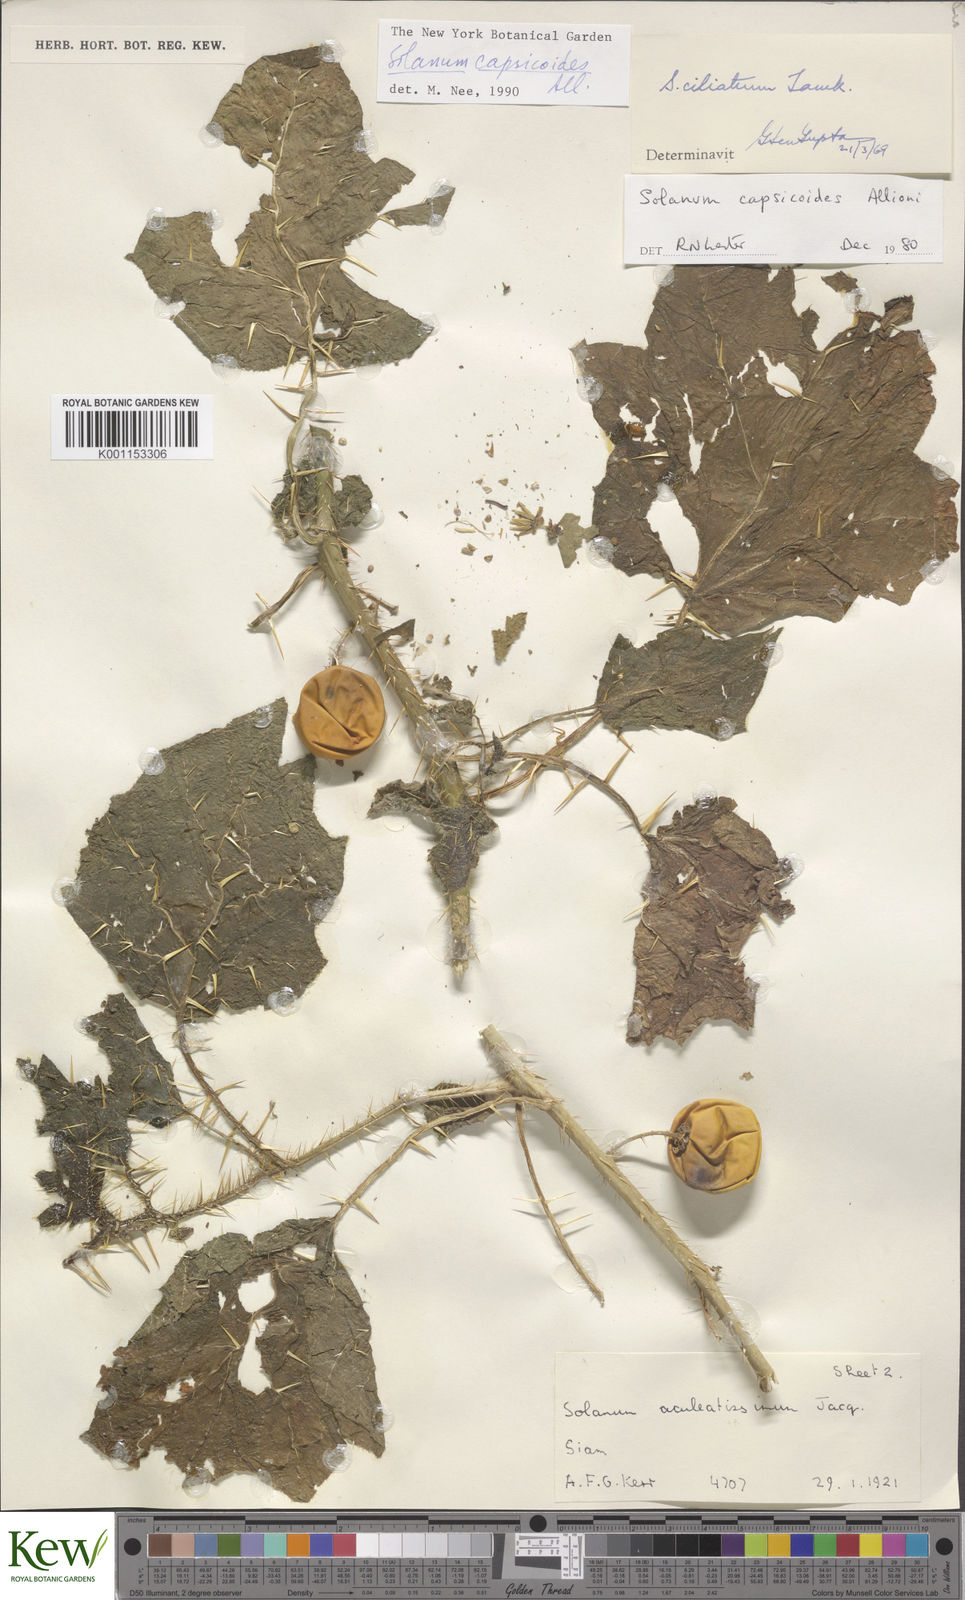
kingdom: Plantae
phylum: Tracheophyta
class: Magnoliopsida
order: Solanales
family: Solanaceae
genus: Solanum
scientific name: Solanum capsicoides
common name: Cockroach berry
